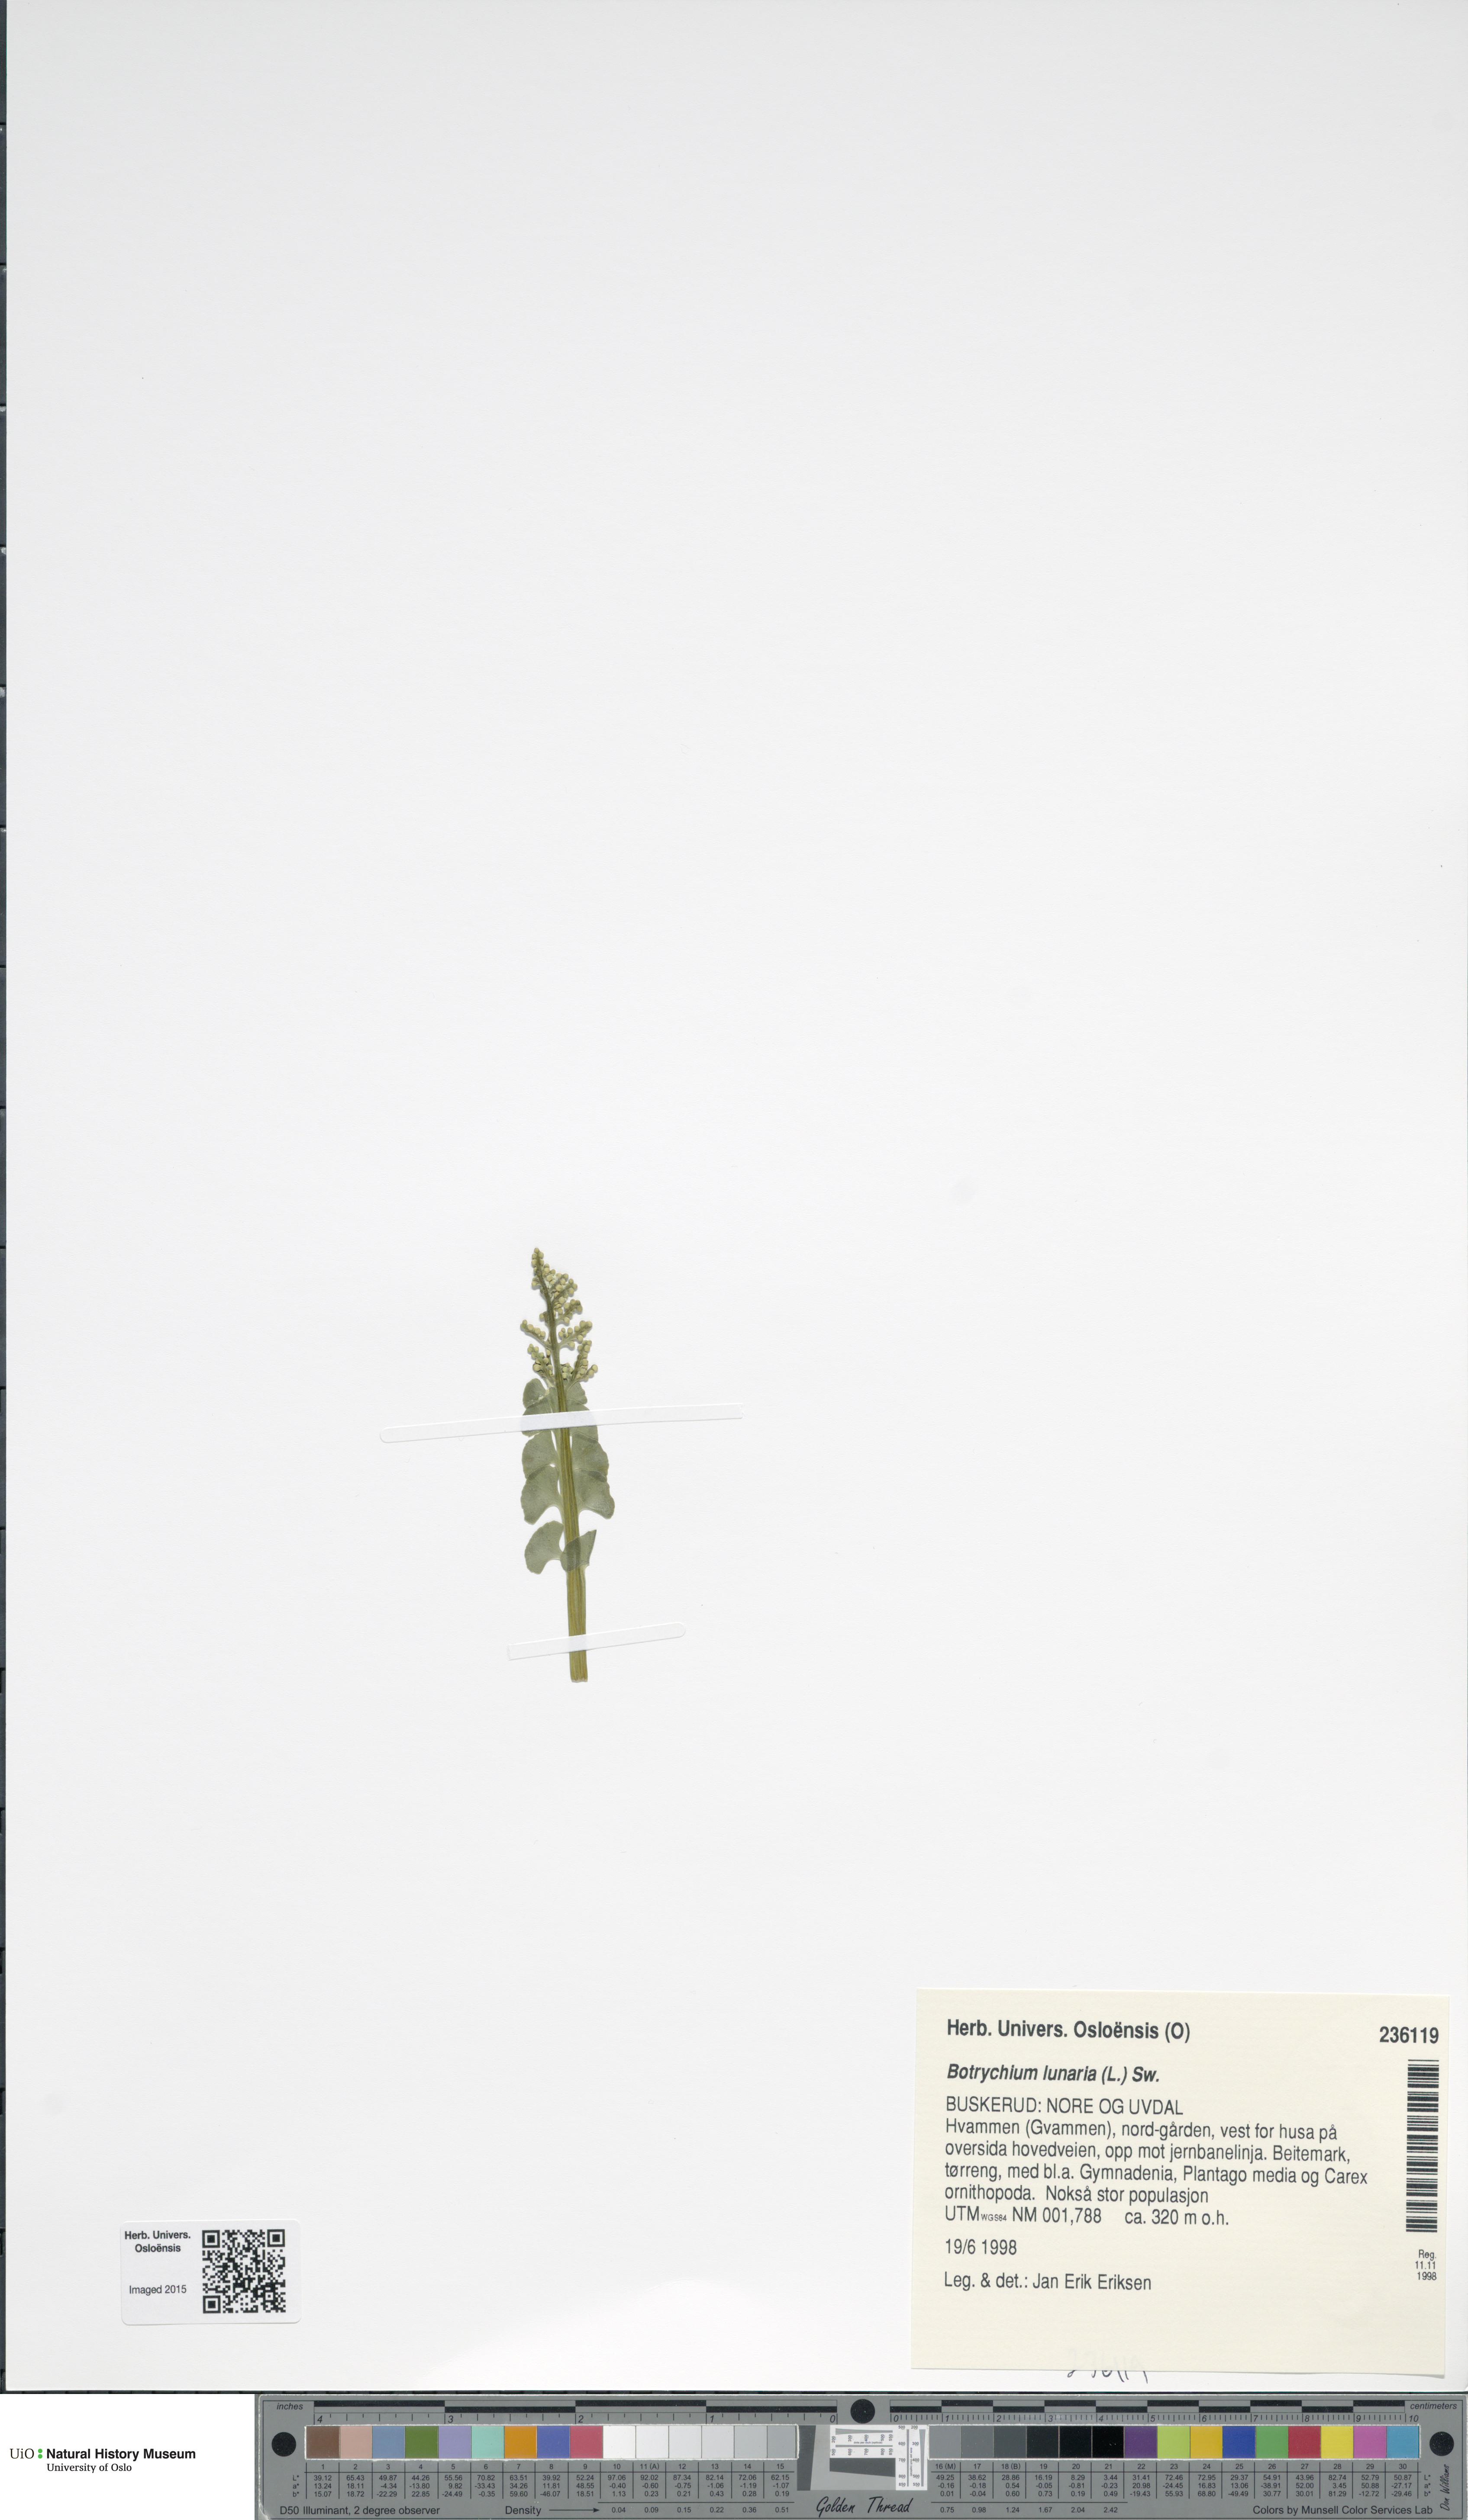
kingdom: Plantae
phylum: Tracheophyta
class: Polypodiopsida
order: Ophioglossales
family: Ophioglossaceae
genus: Botrychium
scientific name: Botrychium lunaria
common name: Moonwort
